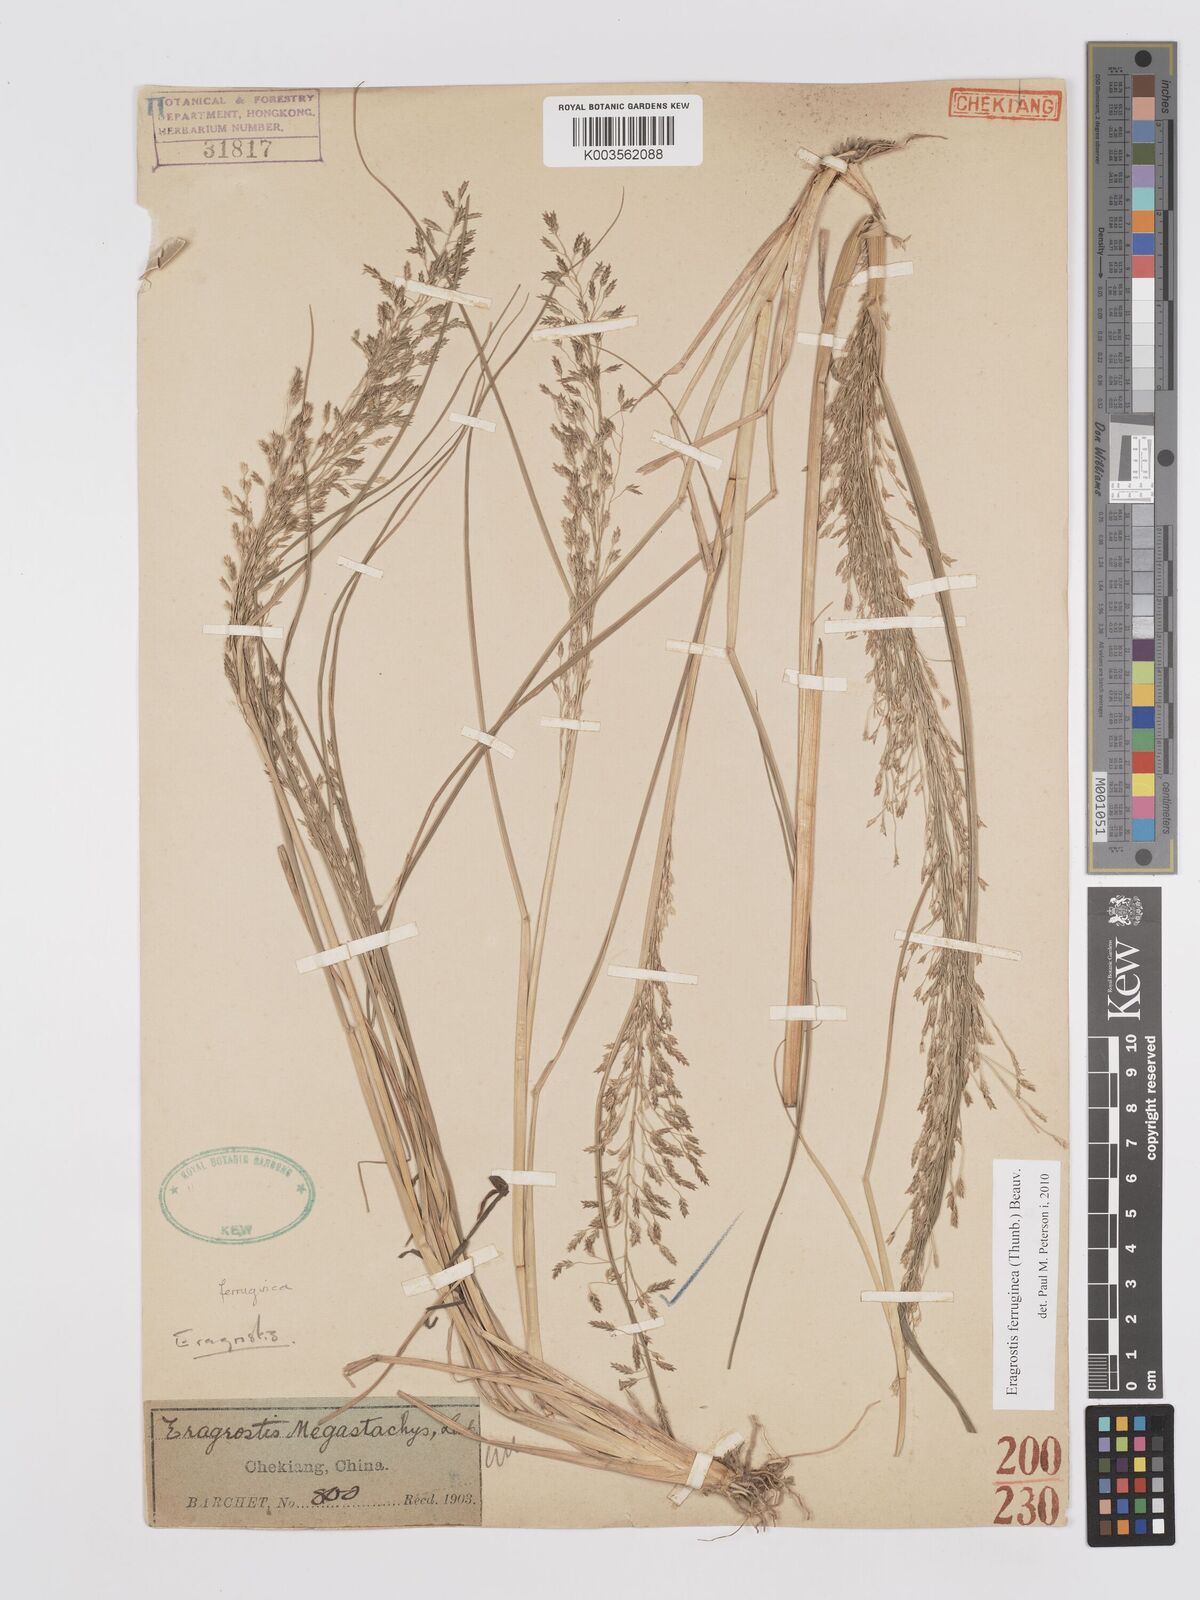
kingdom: Plantae
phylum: Tracheophyta
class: Liliopsida
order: Poales
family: Poaceae
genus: Eragrostis
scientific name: Eragrostis ferruginea
